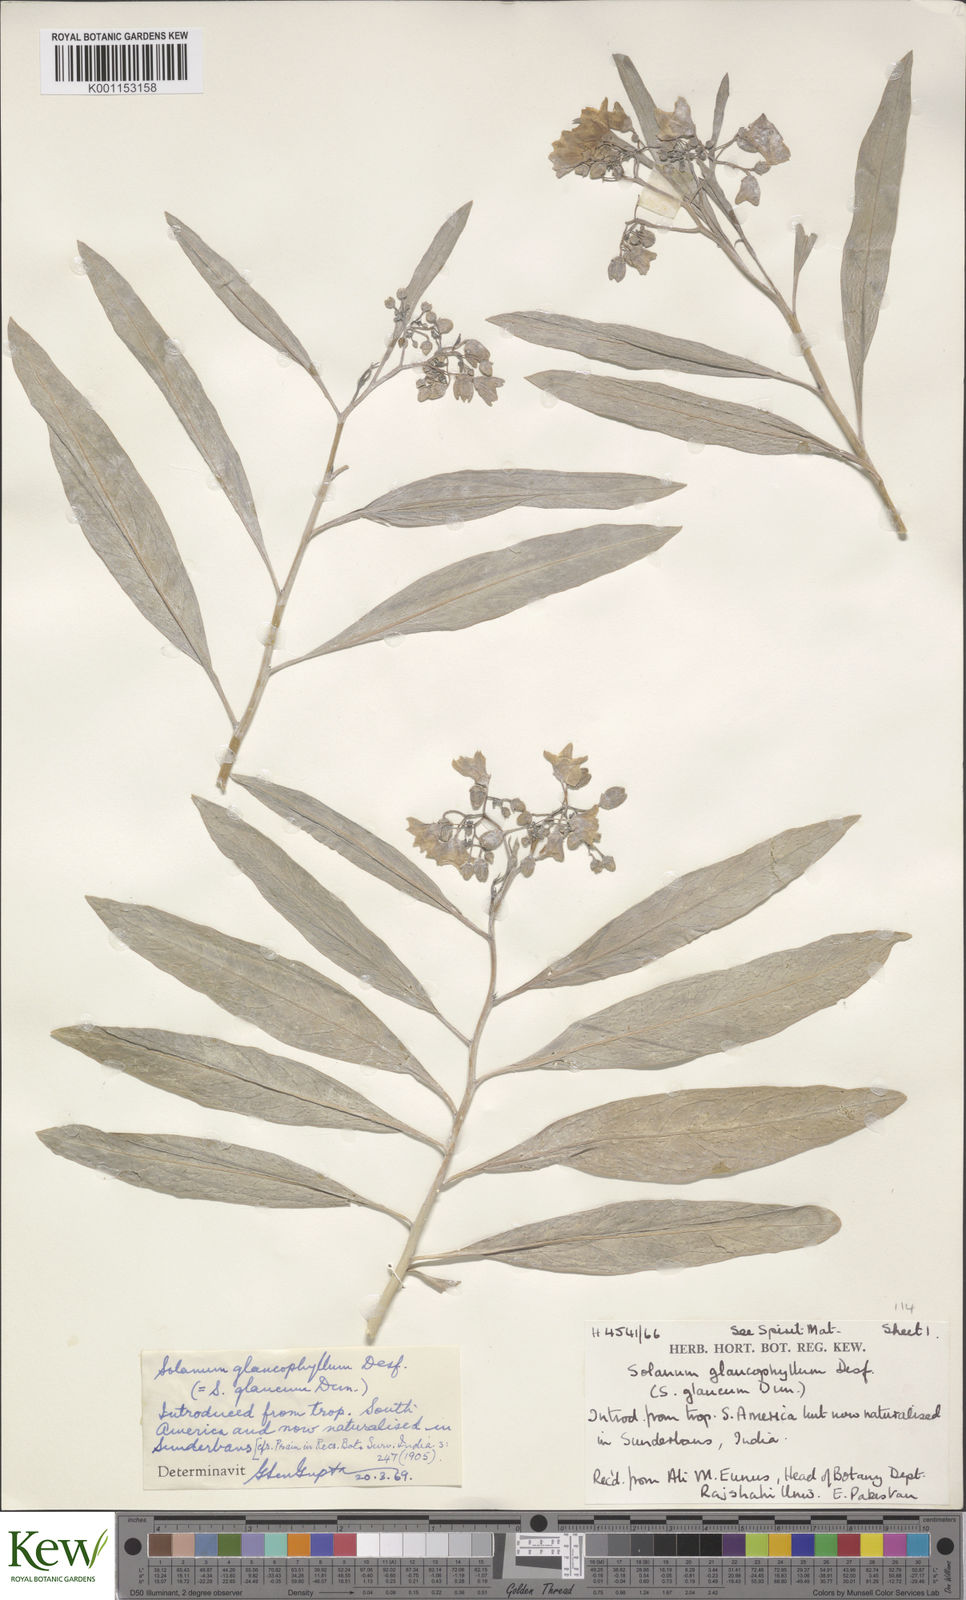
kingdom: Plantae
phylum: Tracheophyta
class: Magnoliopsida
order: Solanales
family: Solanaceae
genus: Solanum
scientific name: Solanum glaucophyllum
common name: Waxyleaf nightshade
